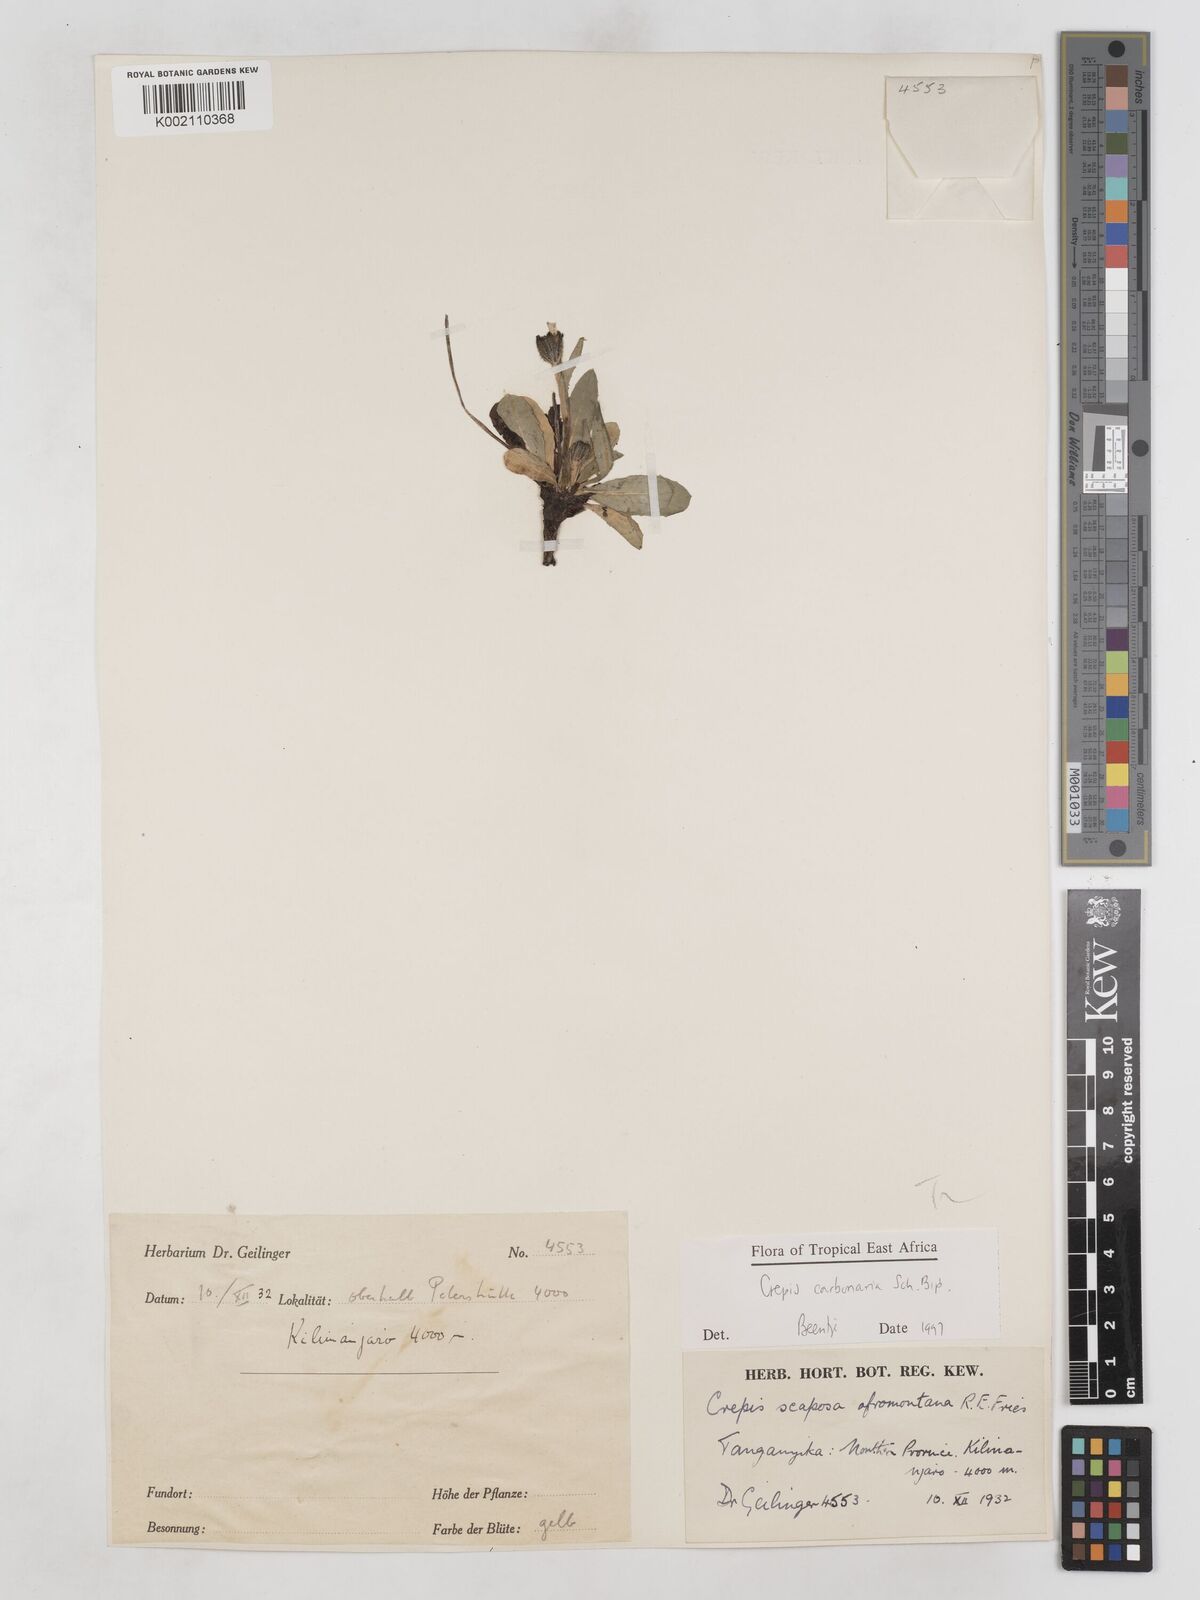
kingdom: Plantae
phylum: Tracheophyta
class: Magnoliopsida
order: Asterales
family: Asteraceae
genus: Crepis
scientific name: Crepis carbonaria
